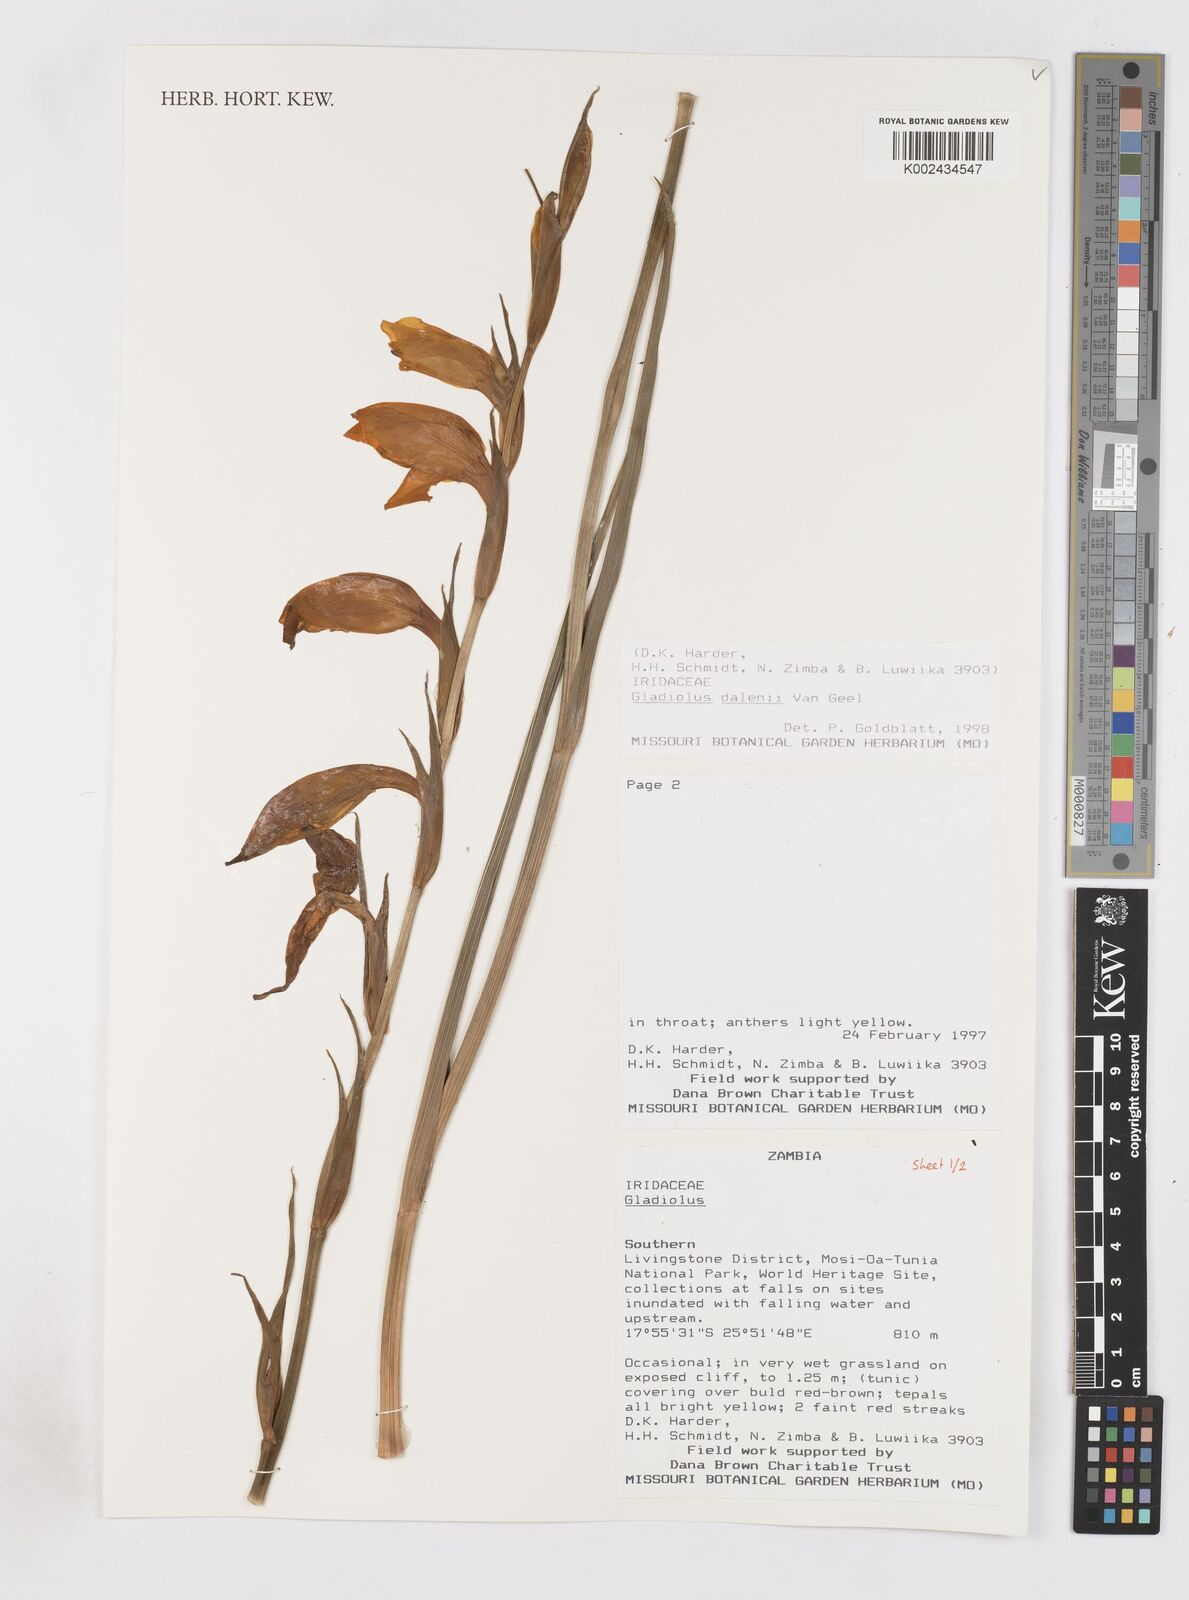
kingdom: Plantae
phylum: Tracheophyta
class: Liliopsida
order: Asparagales
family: Iridaceae
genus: Gladiolus
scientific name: Gladiolus dalenii
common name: Cornflag
